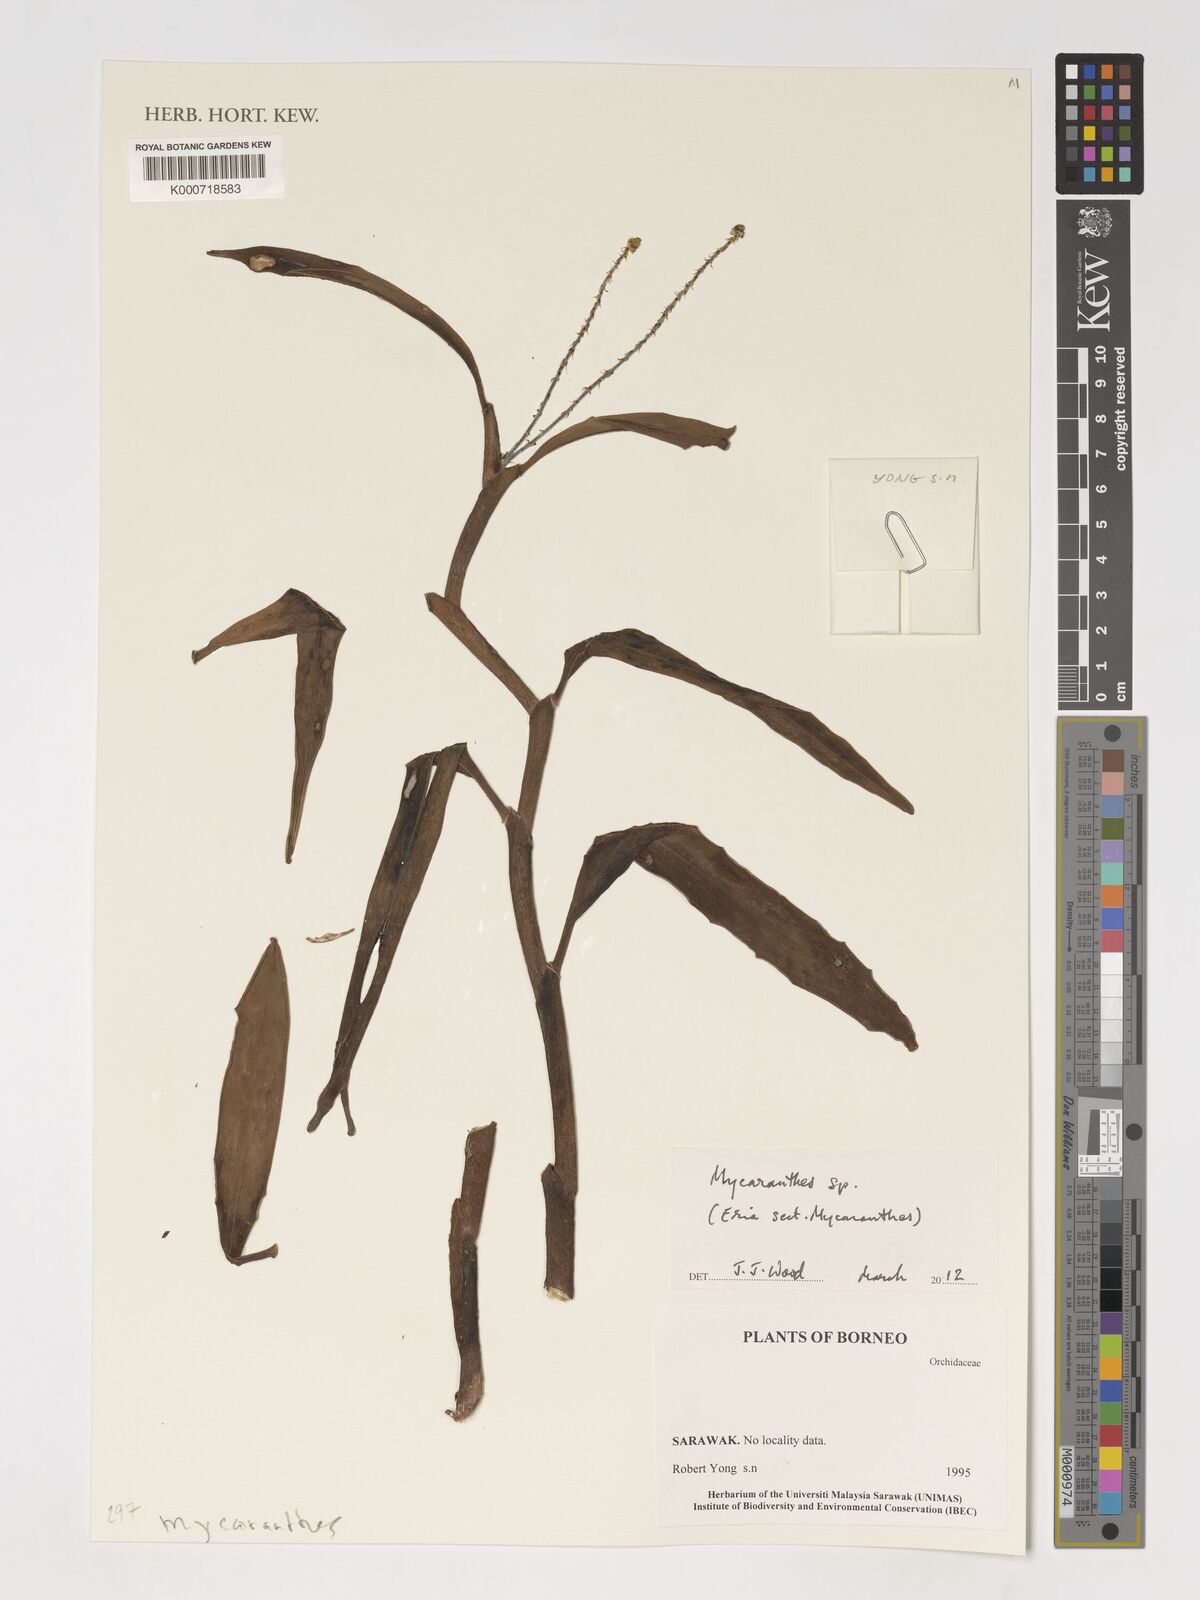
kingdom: Plantae
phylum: Tracheophyta
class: Liliopsida
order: Asparagales
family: Orchidaceae
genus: Mycaranthes
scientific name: Mycaranthes
